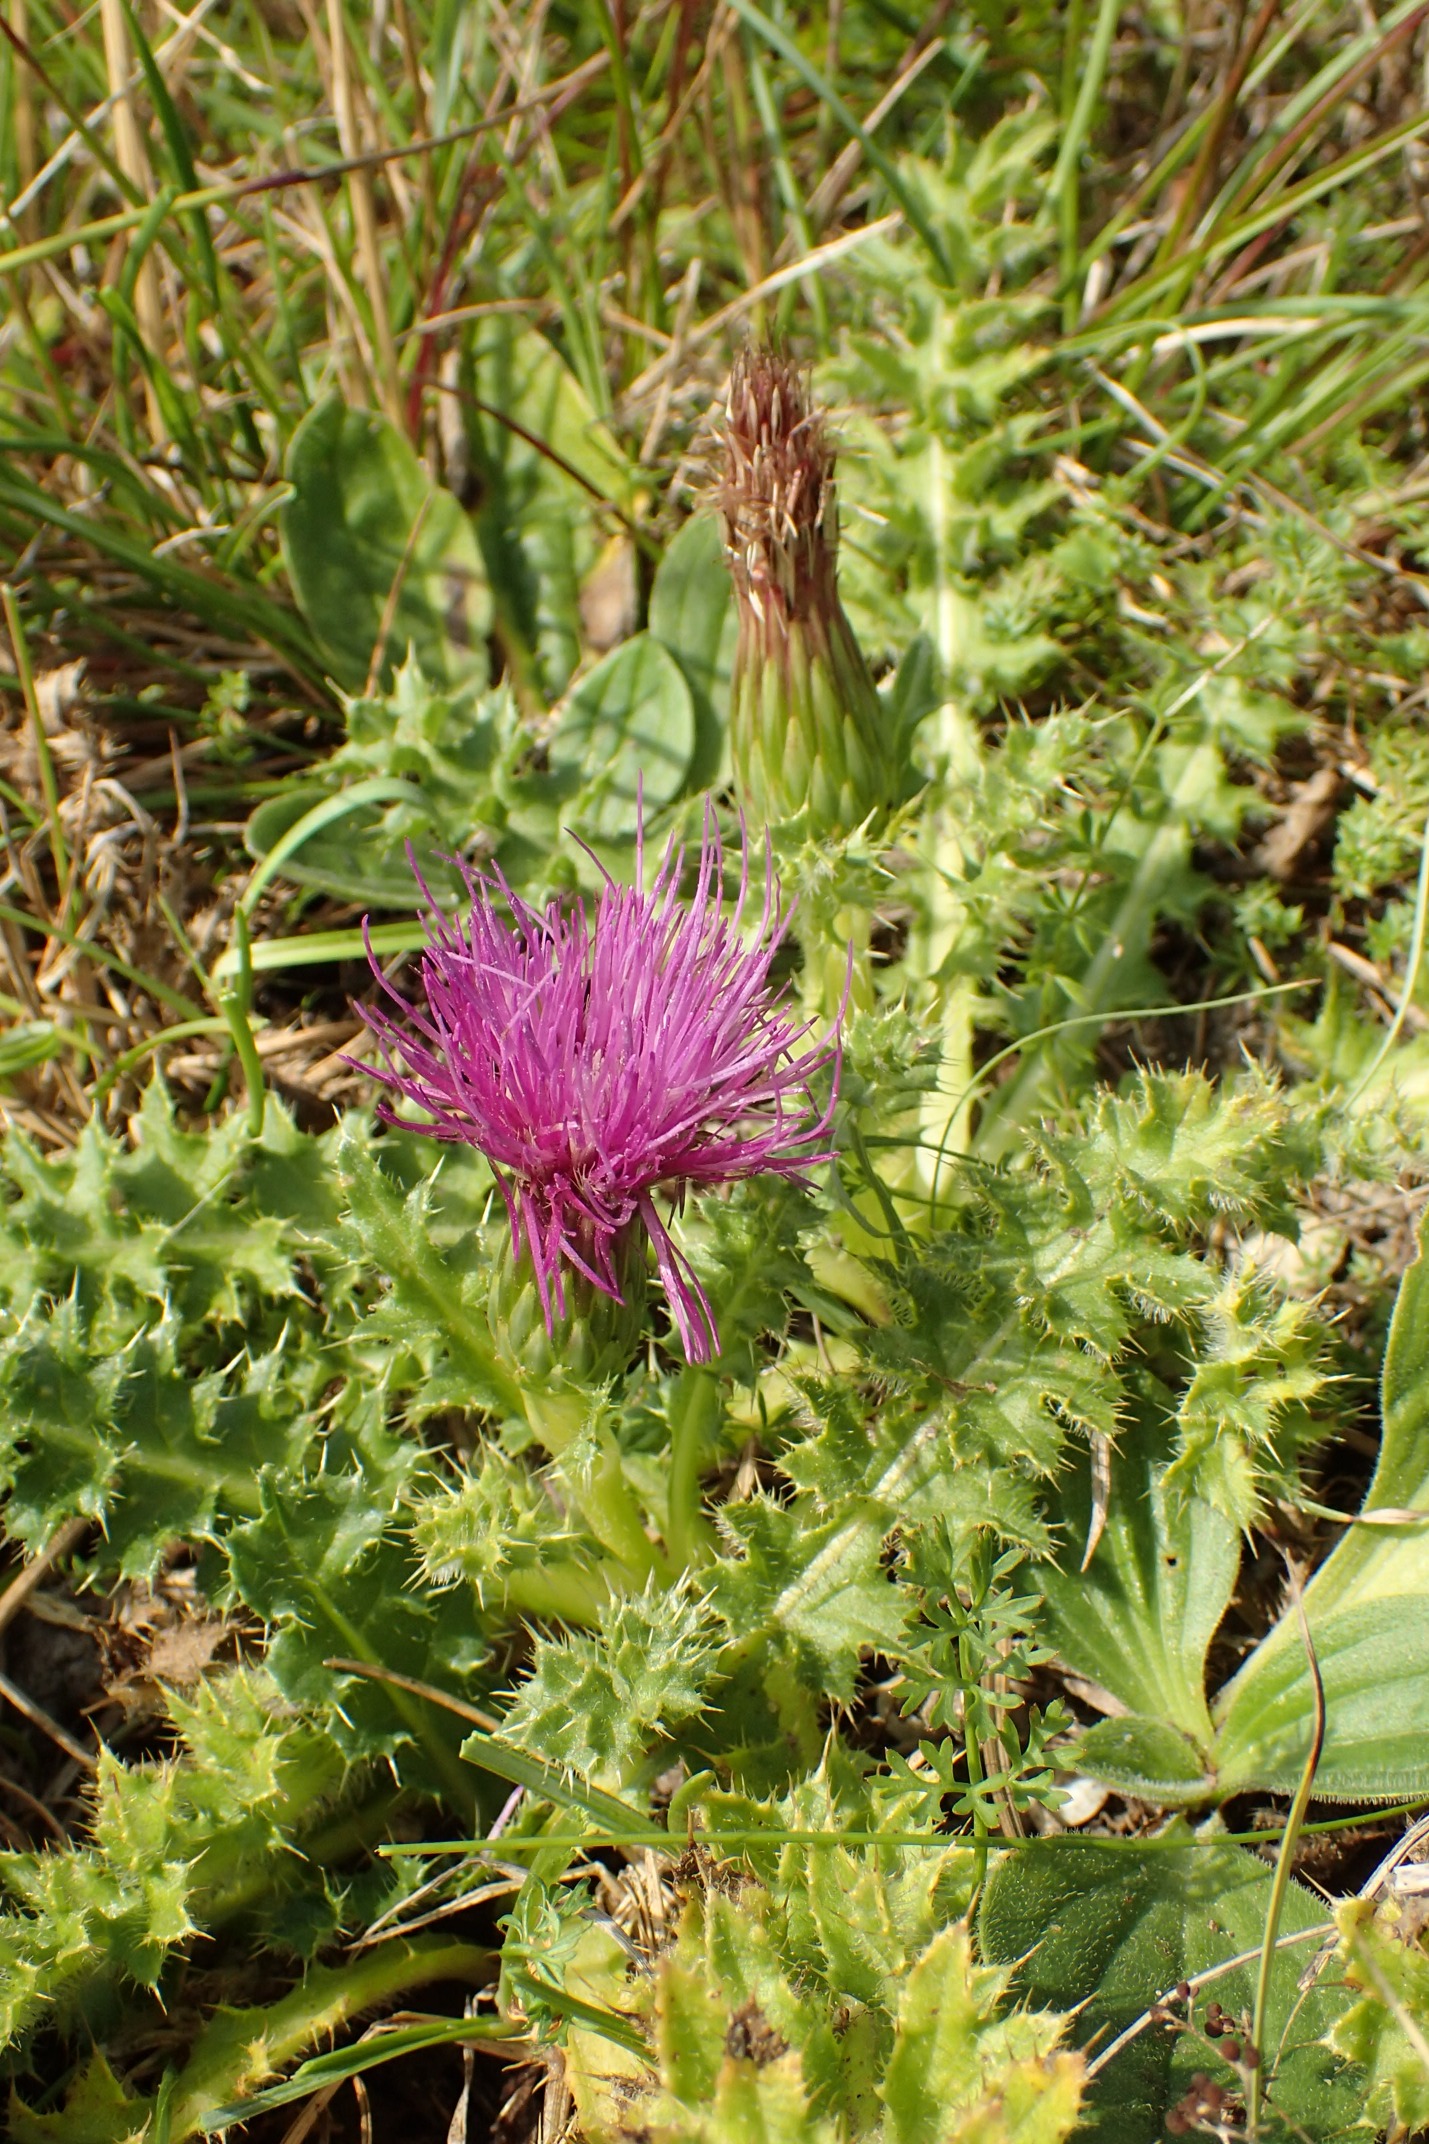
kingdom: Plantae
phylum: Tracheophyta
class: Magnoliopsida
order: Asterales
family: Asteraceae
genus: Cirsium
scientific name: Cirsium acaule
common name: Lav tidsel
